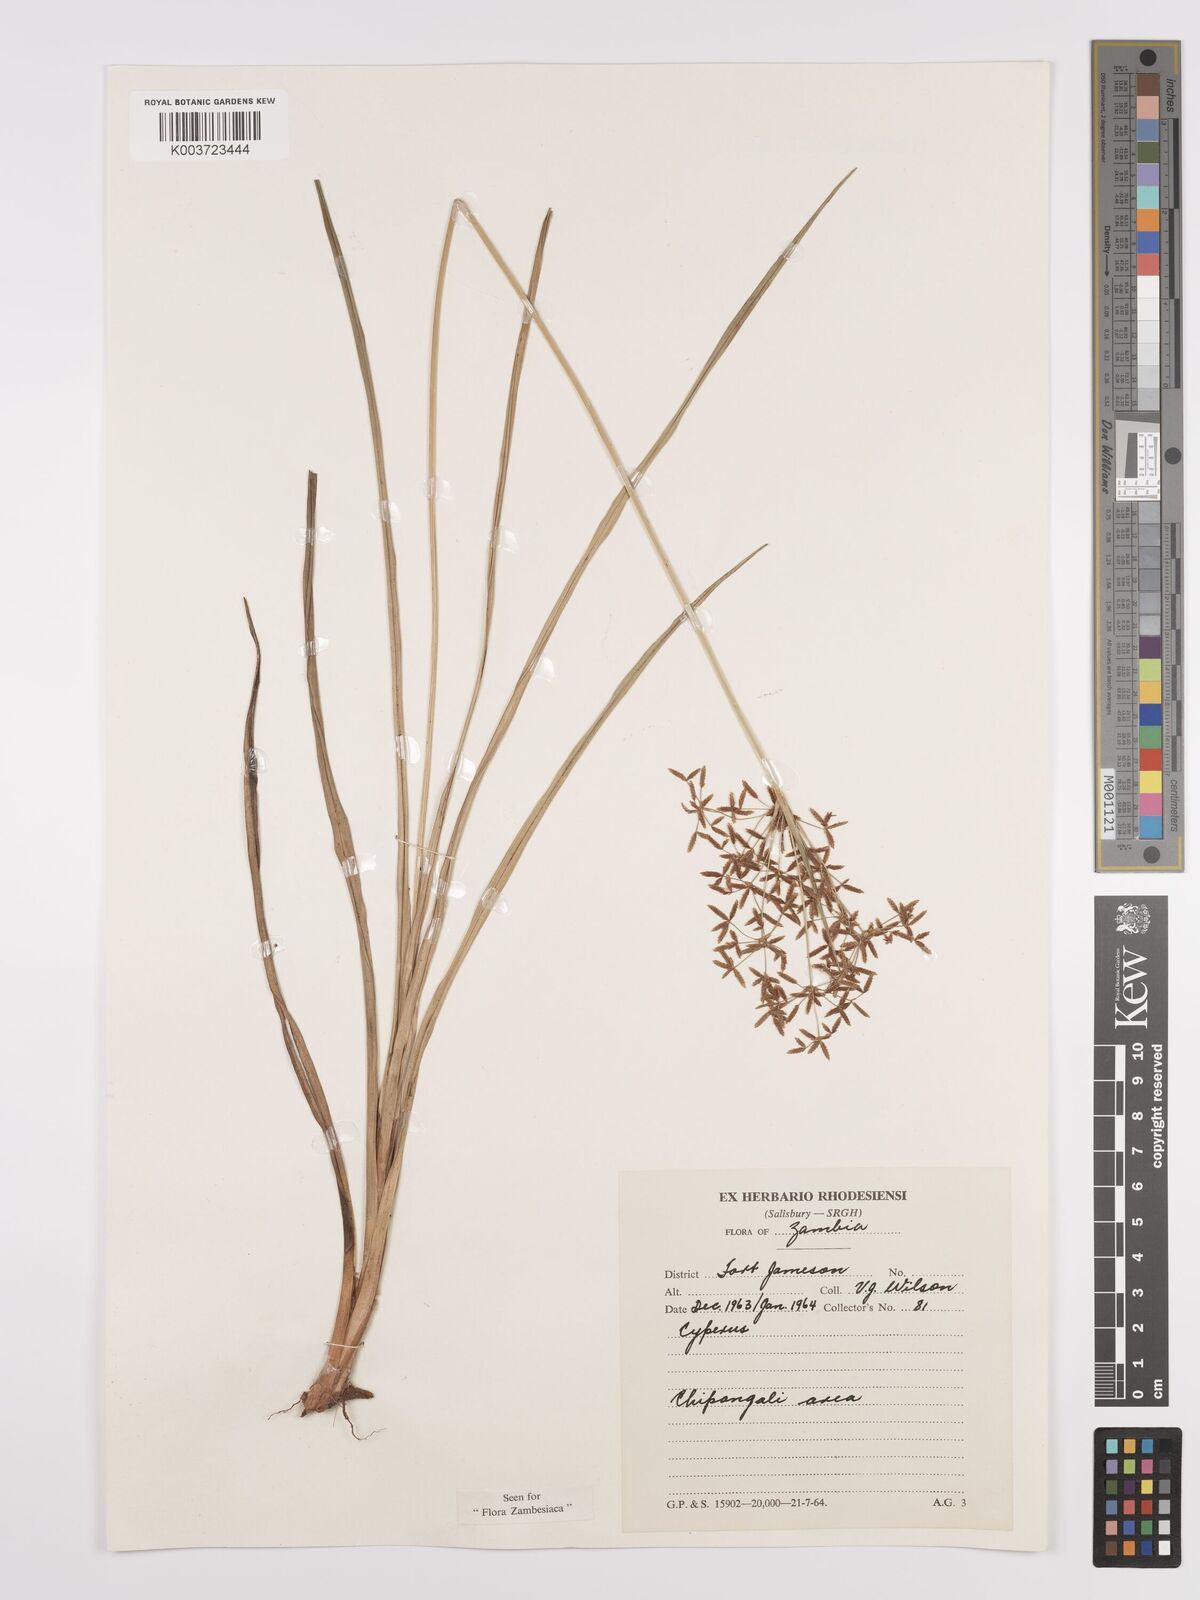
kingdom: Plantae
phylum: Tracheophyta
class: Liliopsida
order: Poales
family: Cyperaceae
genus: Cyperus
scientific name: Cyperus aureobrunneus
